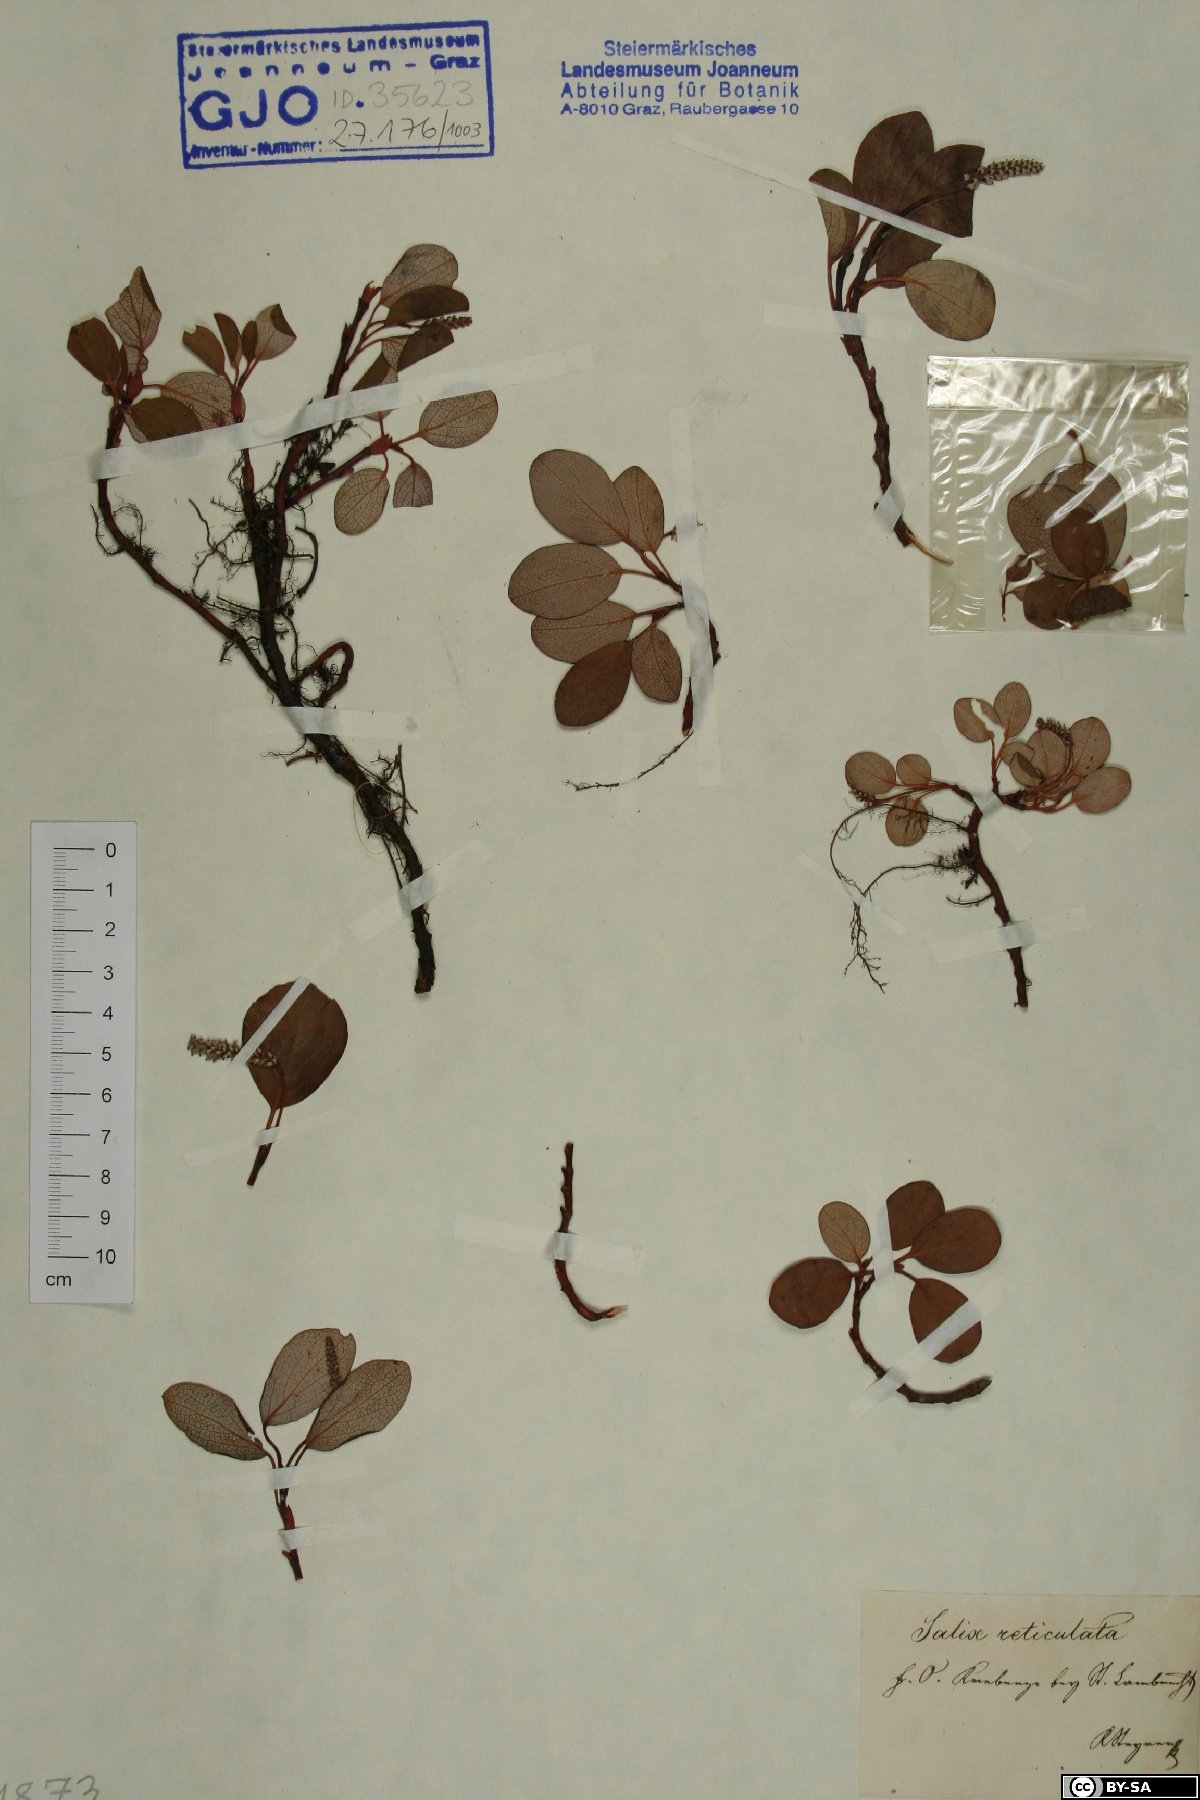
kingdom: Plantae
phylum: Tracheophyta
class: Magnoliopsida
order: Malpighiales
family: Salicaceae
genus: Salix
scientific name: Salix reticulata
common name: Net-leaved willow
